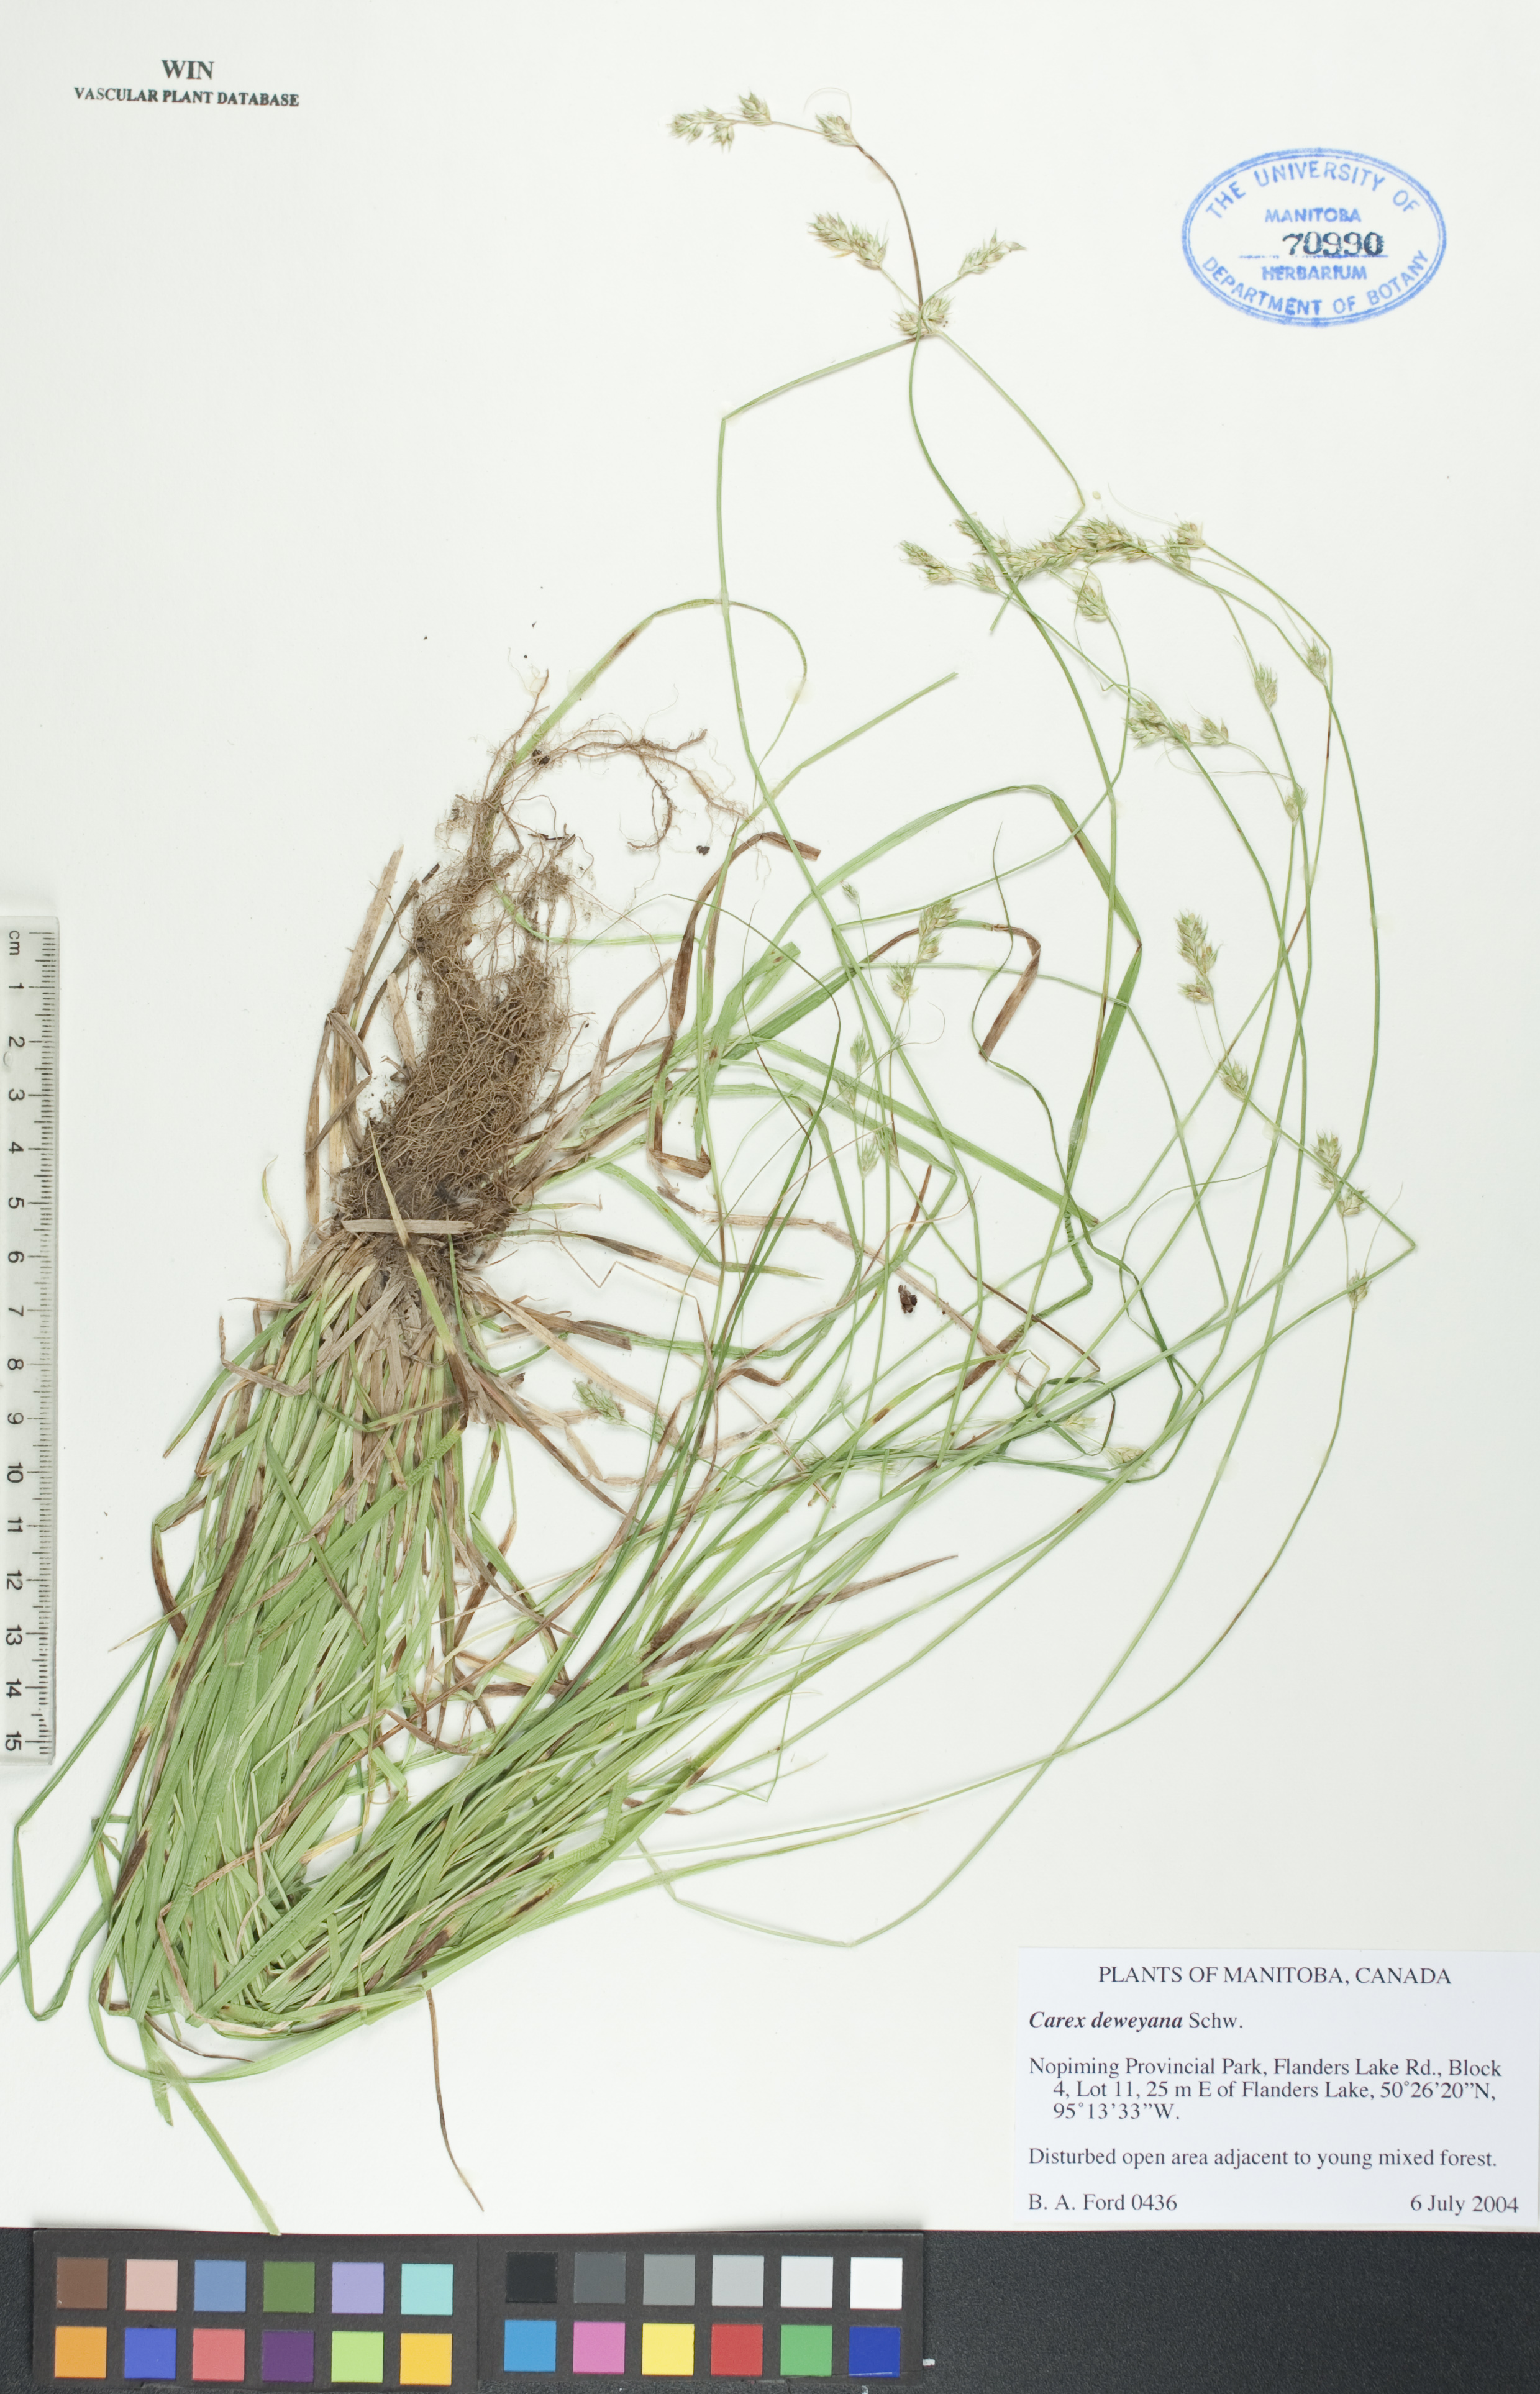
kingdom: Plantae
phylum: Tracheophyta
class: Liliopsida
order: Poales
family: Cyperaceae
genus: Carex
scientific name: Carex deweyana
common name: Dewey's sedge
